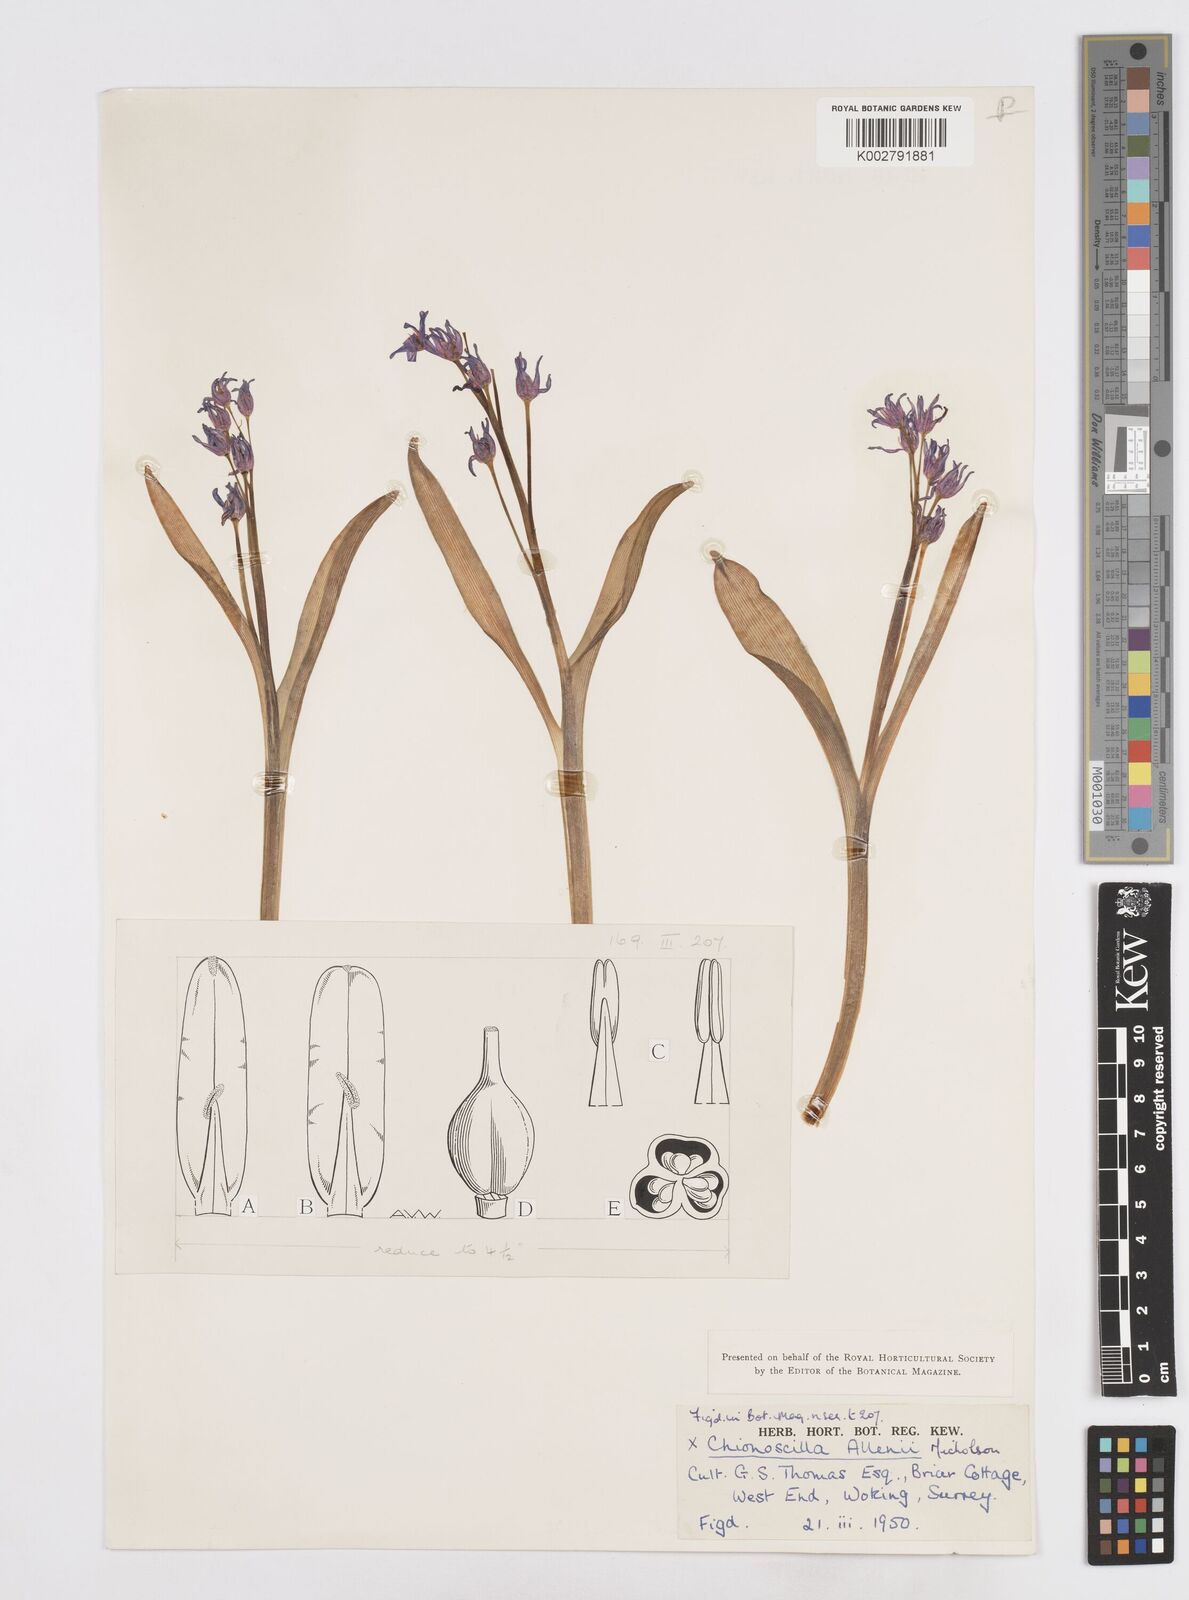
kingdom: Plantae
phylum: Tracheophyta
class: Liliopsida
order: Asparagales
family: Asparagaceae
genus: Scilla
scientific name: Scilla allenii
